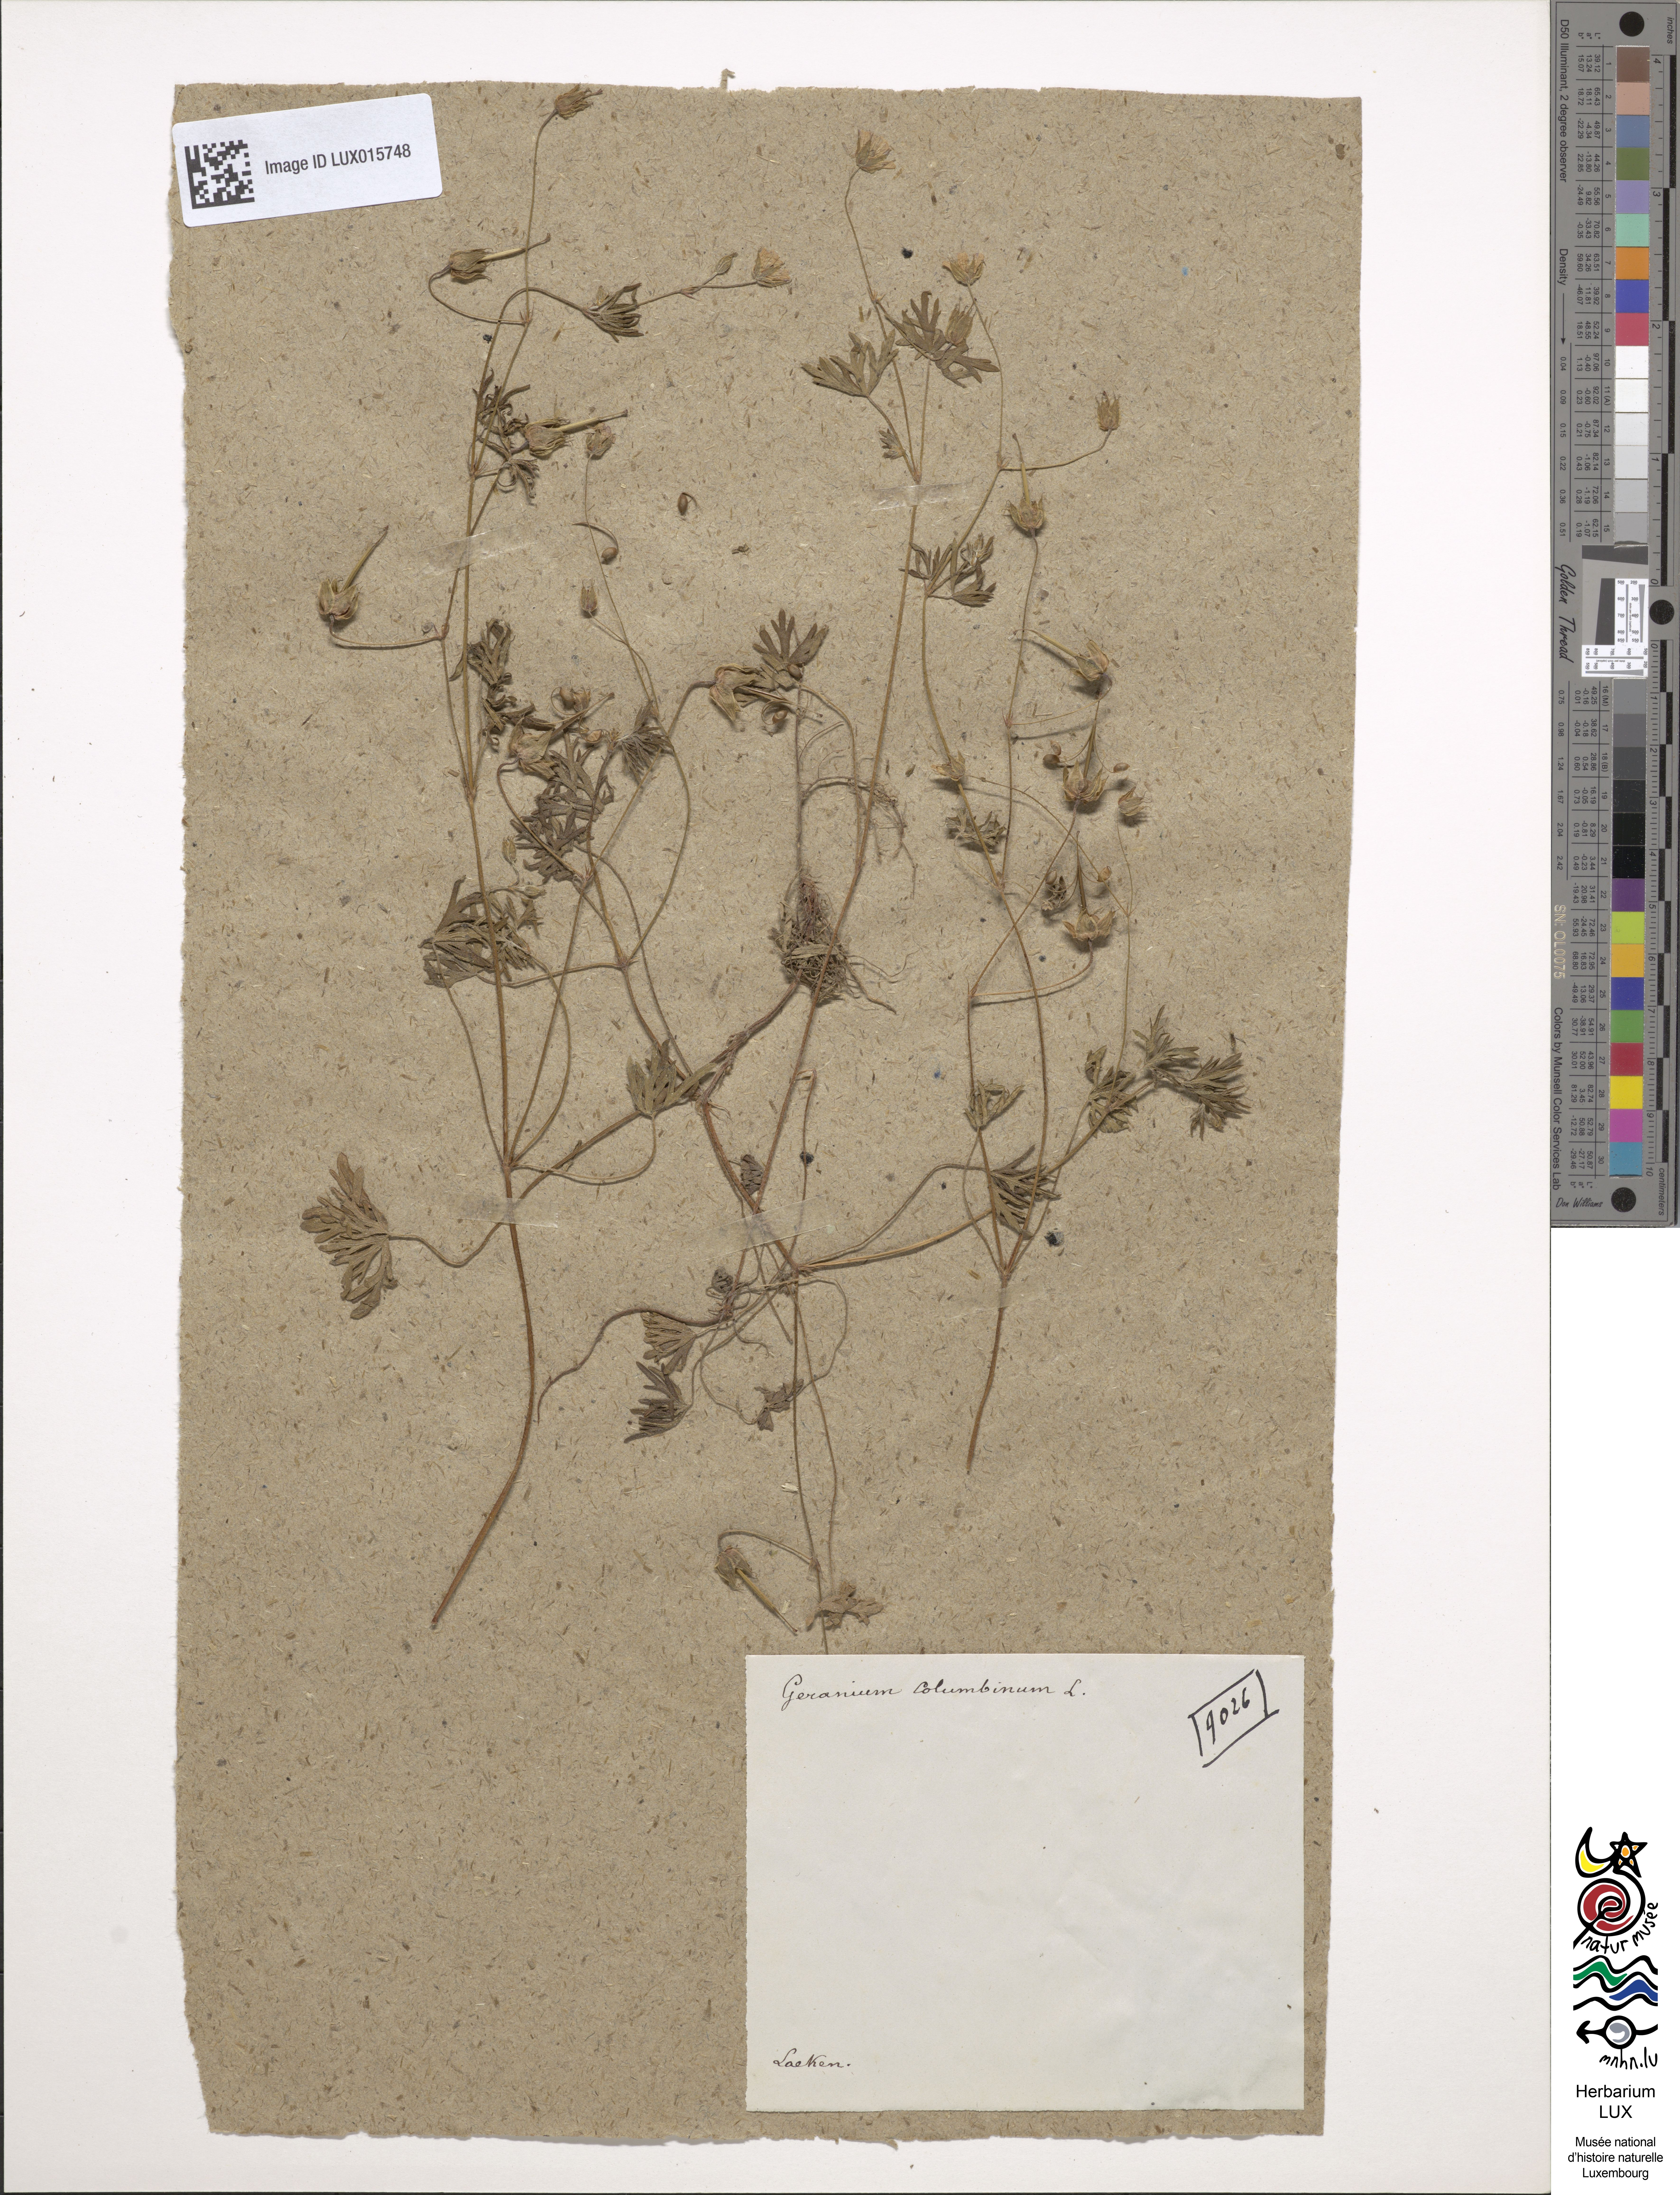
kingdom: Plantae
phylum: Tracheophyta
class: Magnoliopsida
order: Geraniales
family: Geraniaceae
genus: Geranium
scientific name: Geranium columbinum
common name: Long-stalked crane's-bill
